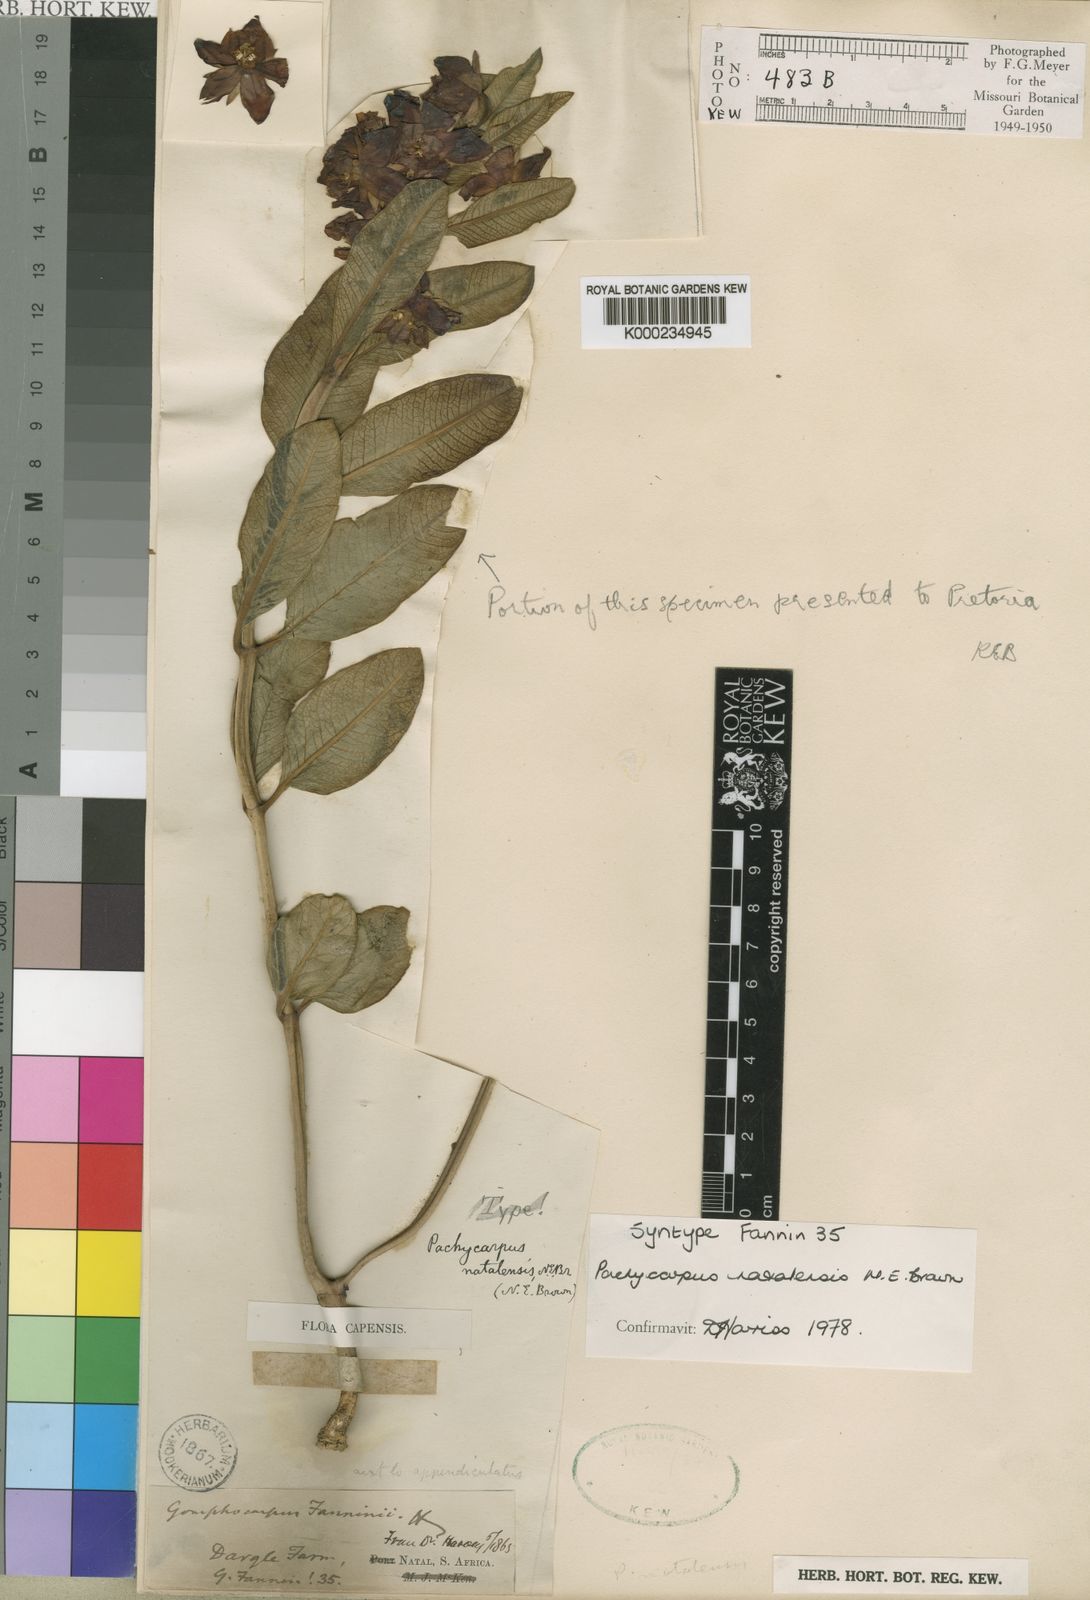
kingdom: Plantae
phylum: Tracheophyta
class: Magnoliopsida
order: Gentianales
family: Apocynaceae
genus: Pachycarpus
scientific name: Pachycarpus natalensis
